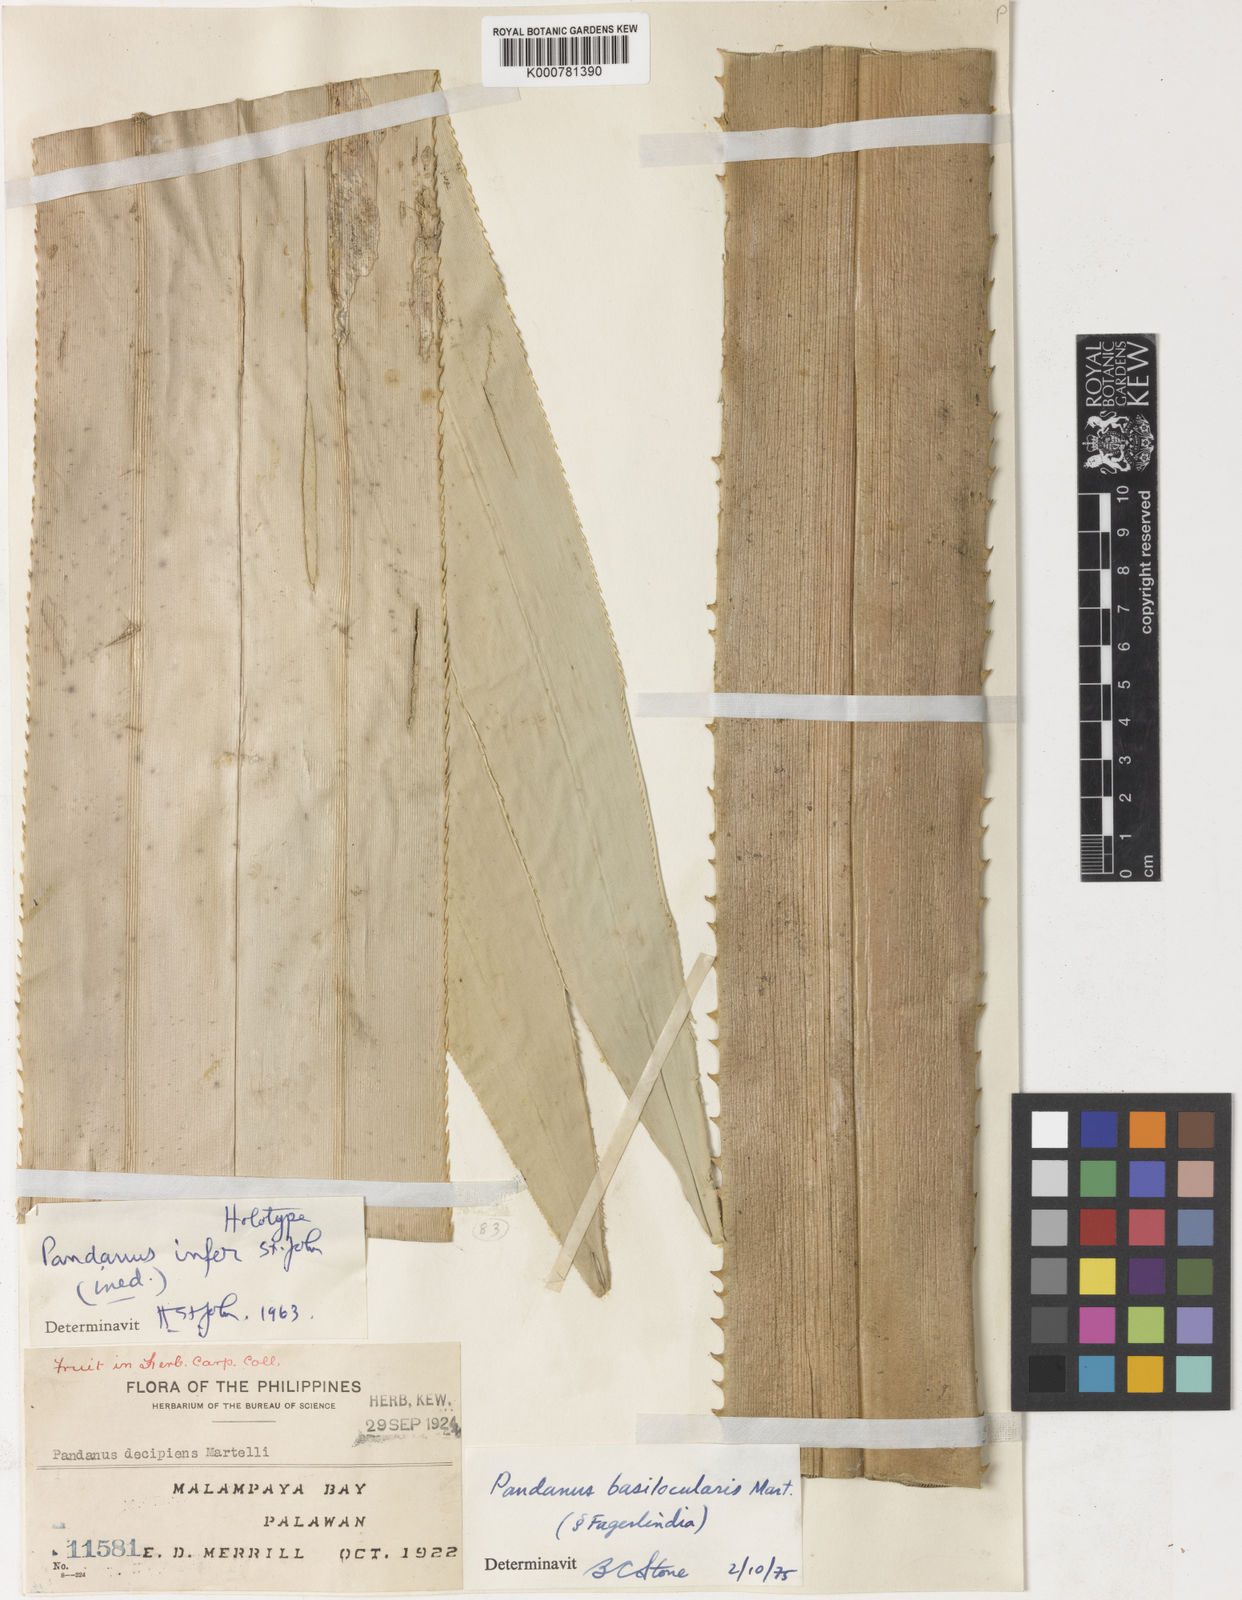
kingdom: Plantae
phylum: Tracheophyta
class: Liliopsida
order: Pandanales
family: Pandanaceae
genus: Pandanus
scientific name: Pandanus
